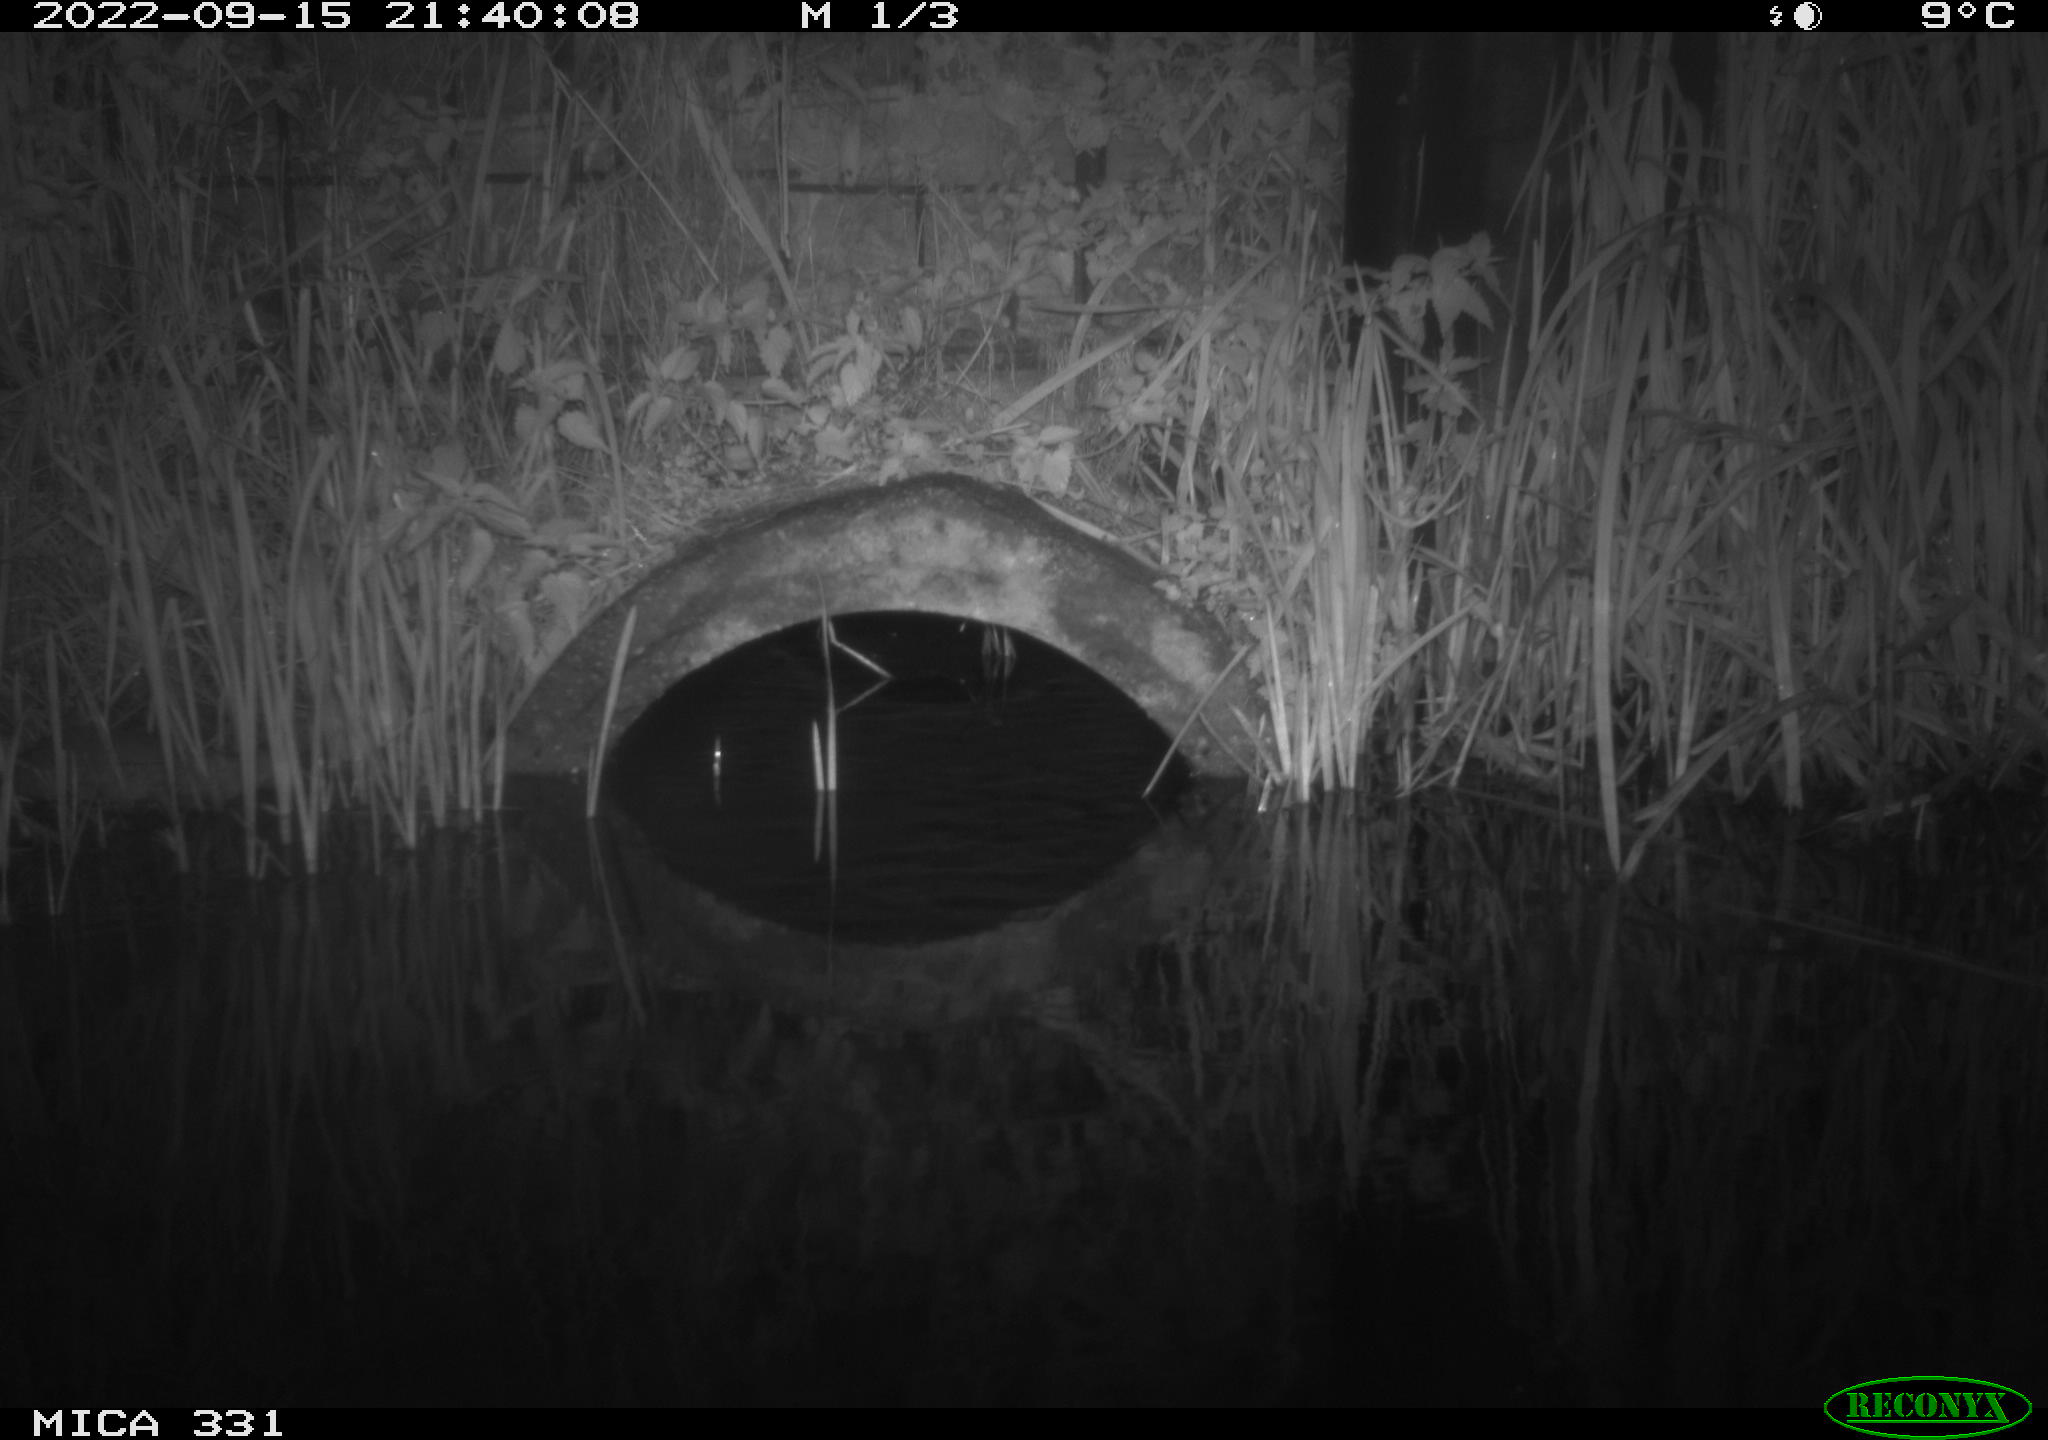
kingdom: Animalia
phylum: Chordata
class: Mammalia
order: Rodentia
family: Muridae
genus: Rattus
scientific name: Rattus norvegicus
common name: Brown rat
